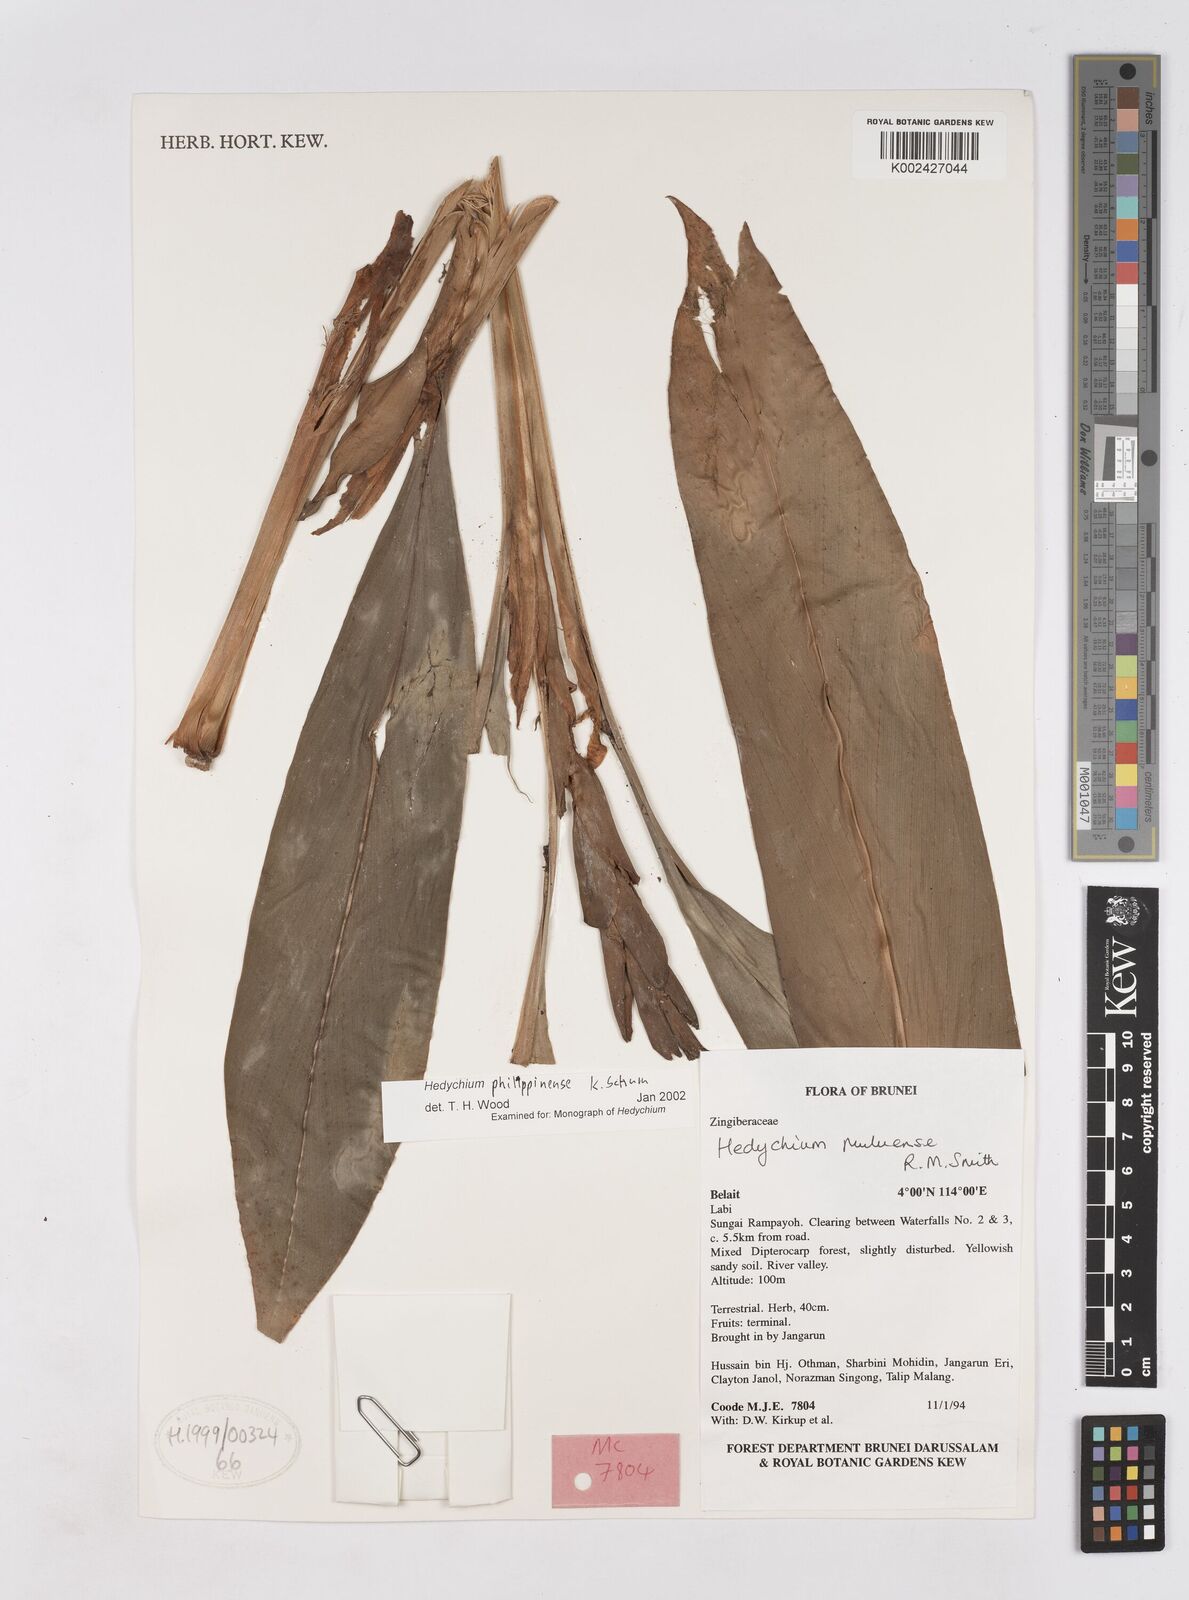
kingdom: Plantae
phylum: Tracheophyta
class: Liliopsida
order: Zingiberales
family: Zingiberaceae
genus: Hedychium
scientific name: Hedychium philippinense
